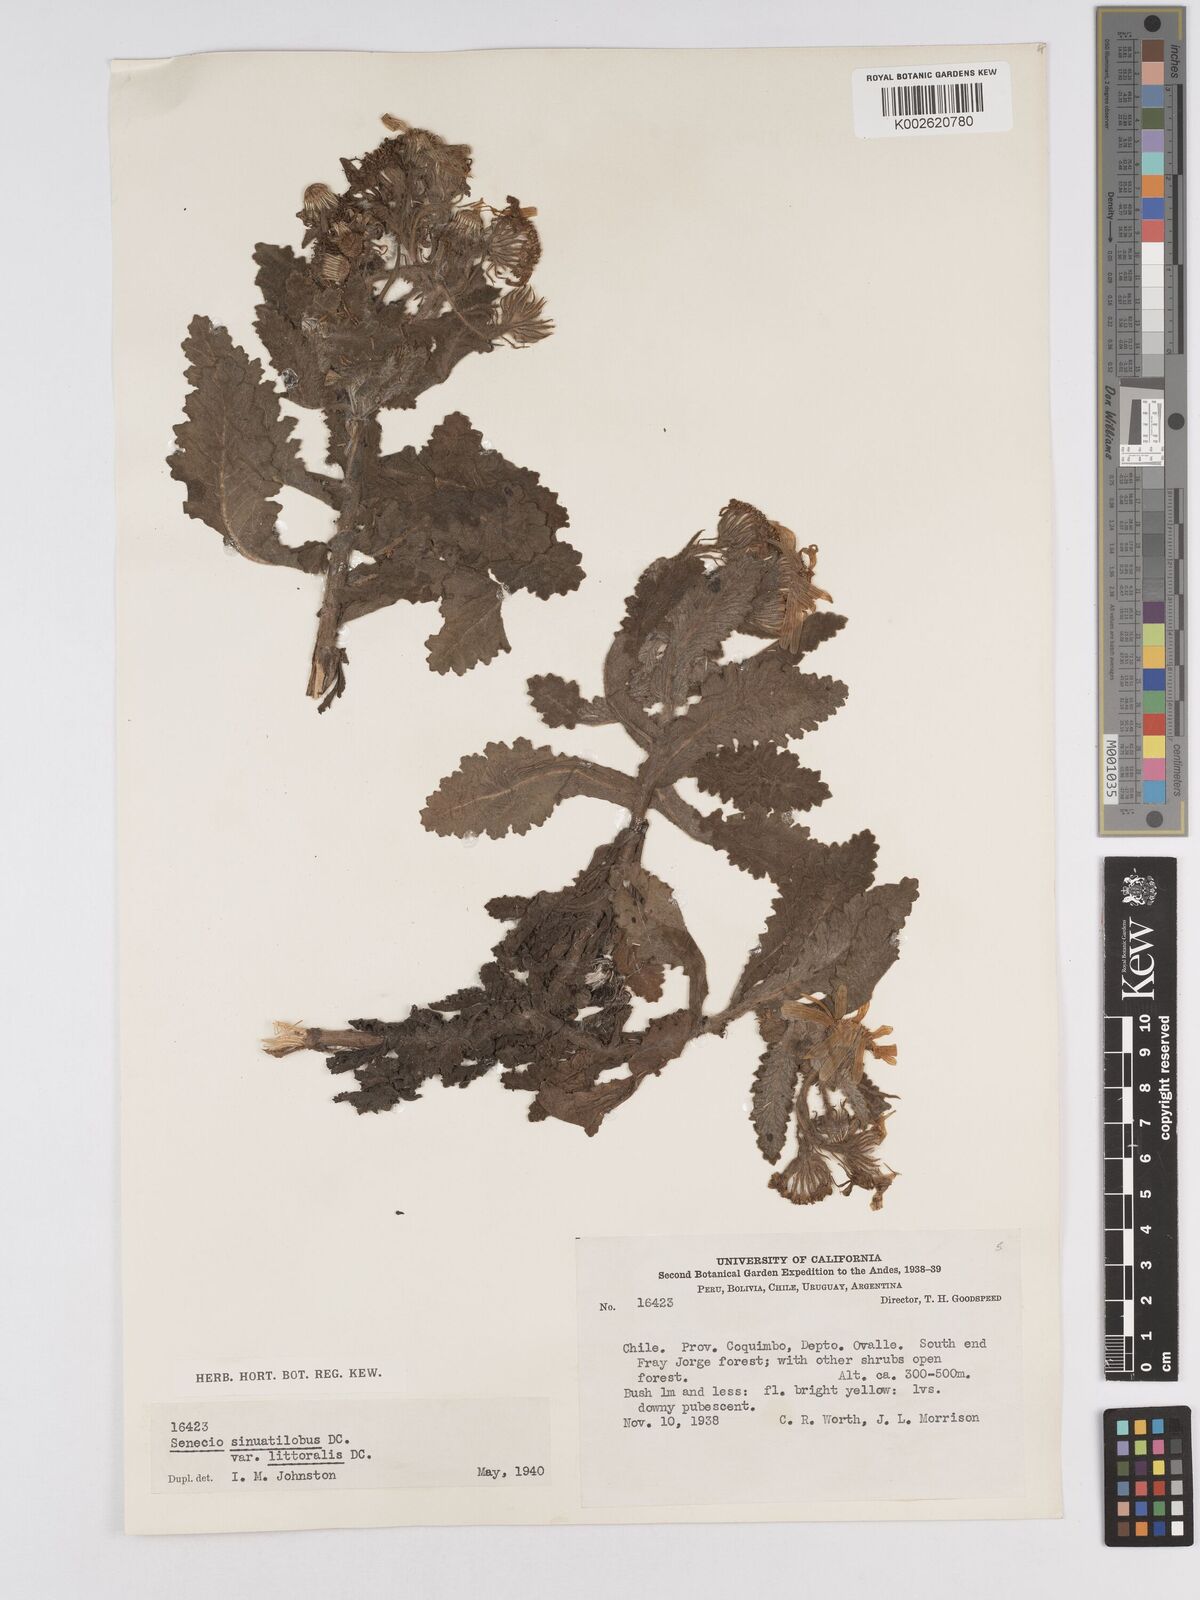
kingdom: Plantae
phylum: Tracheophyta
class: Magnoliopsida
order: Asterales
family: Asteraceae
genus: Senecio
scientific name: Senecio planiflorus
